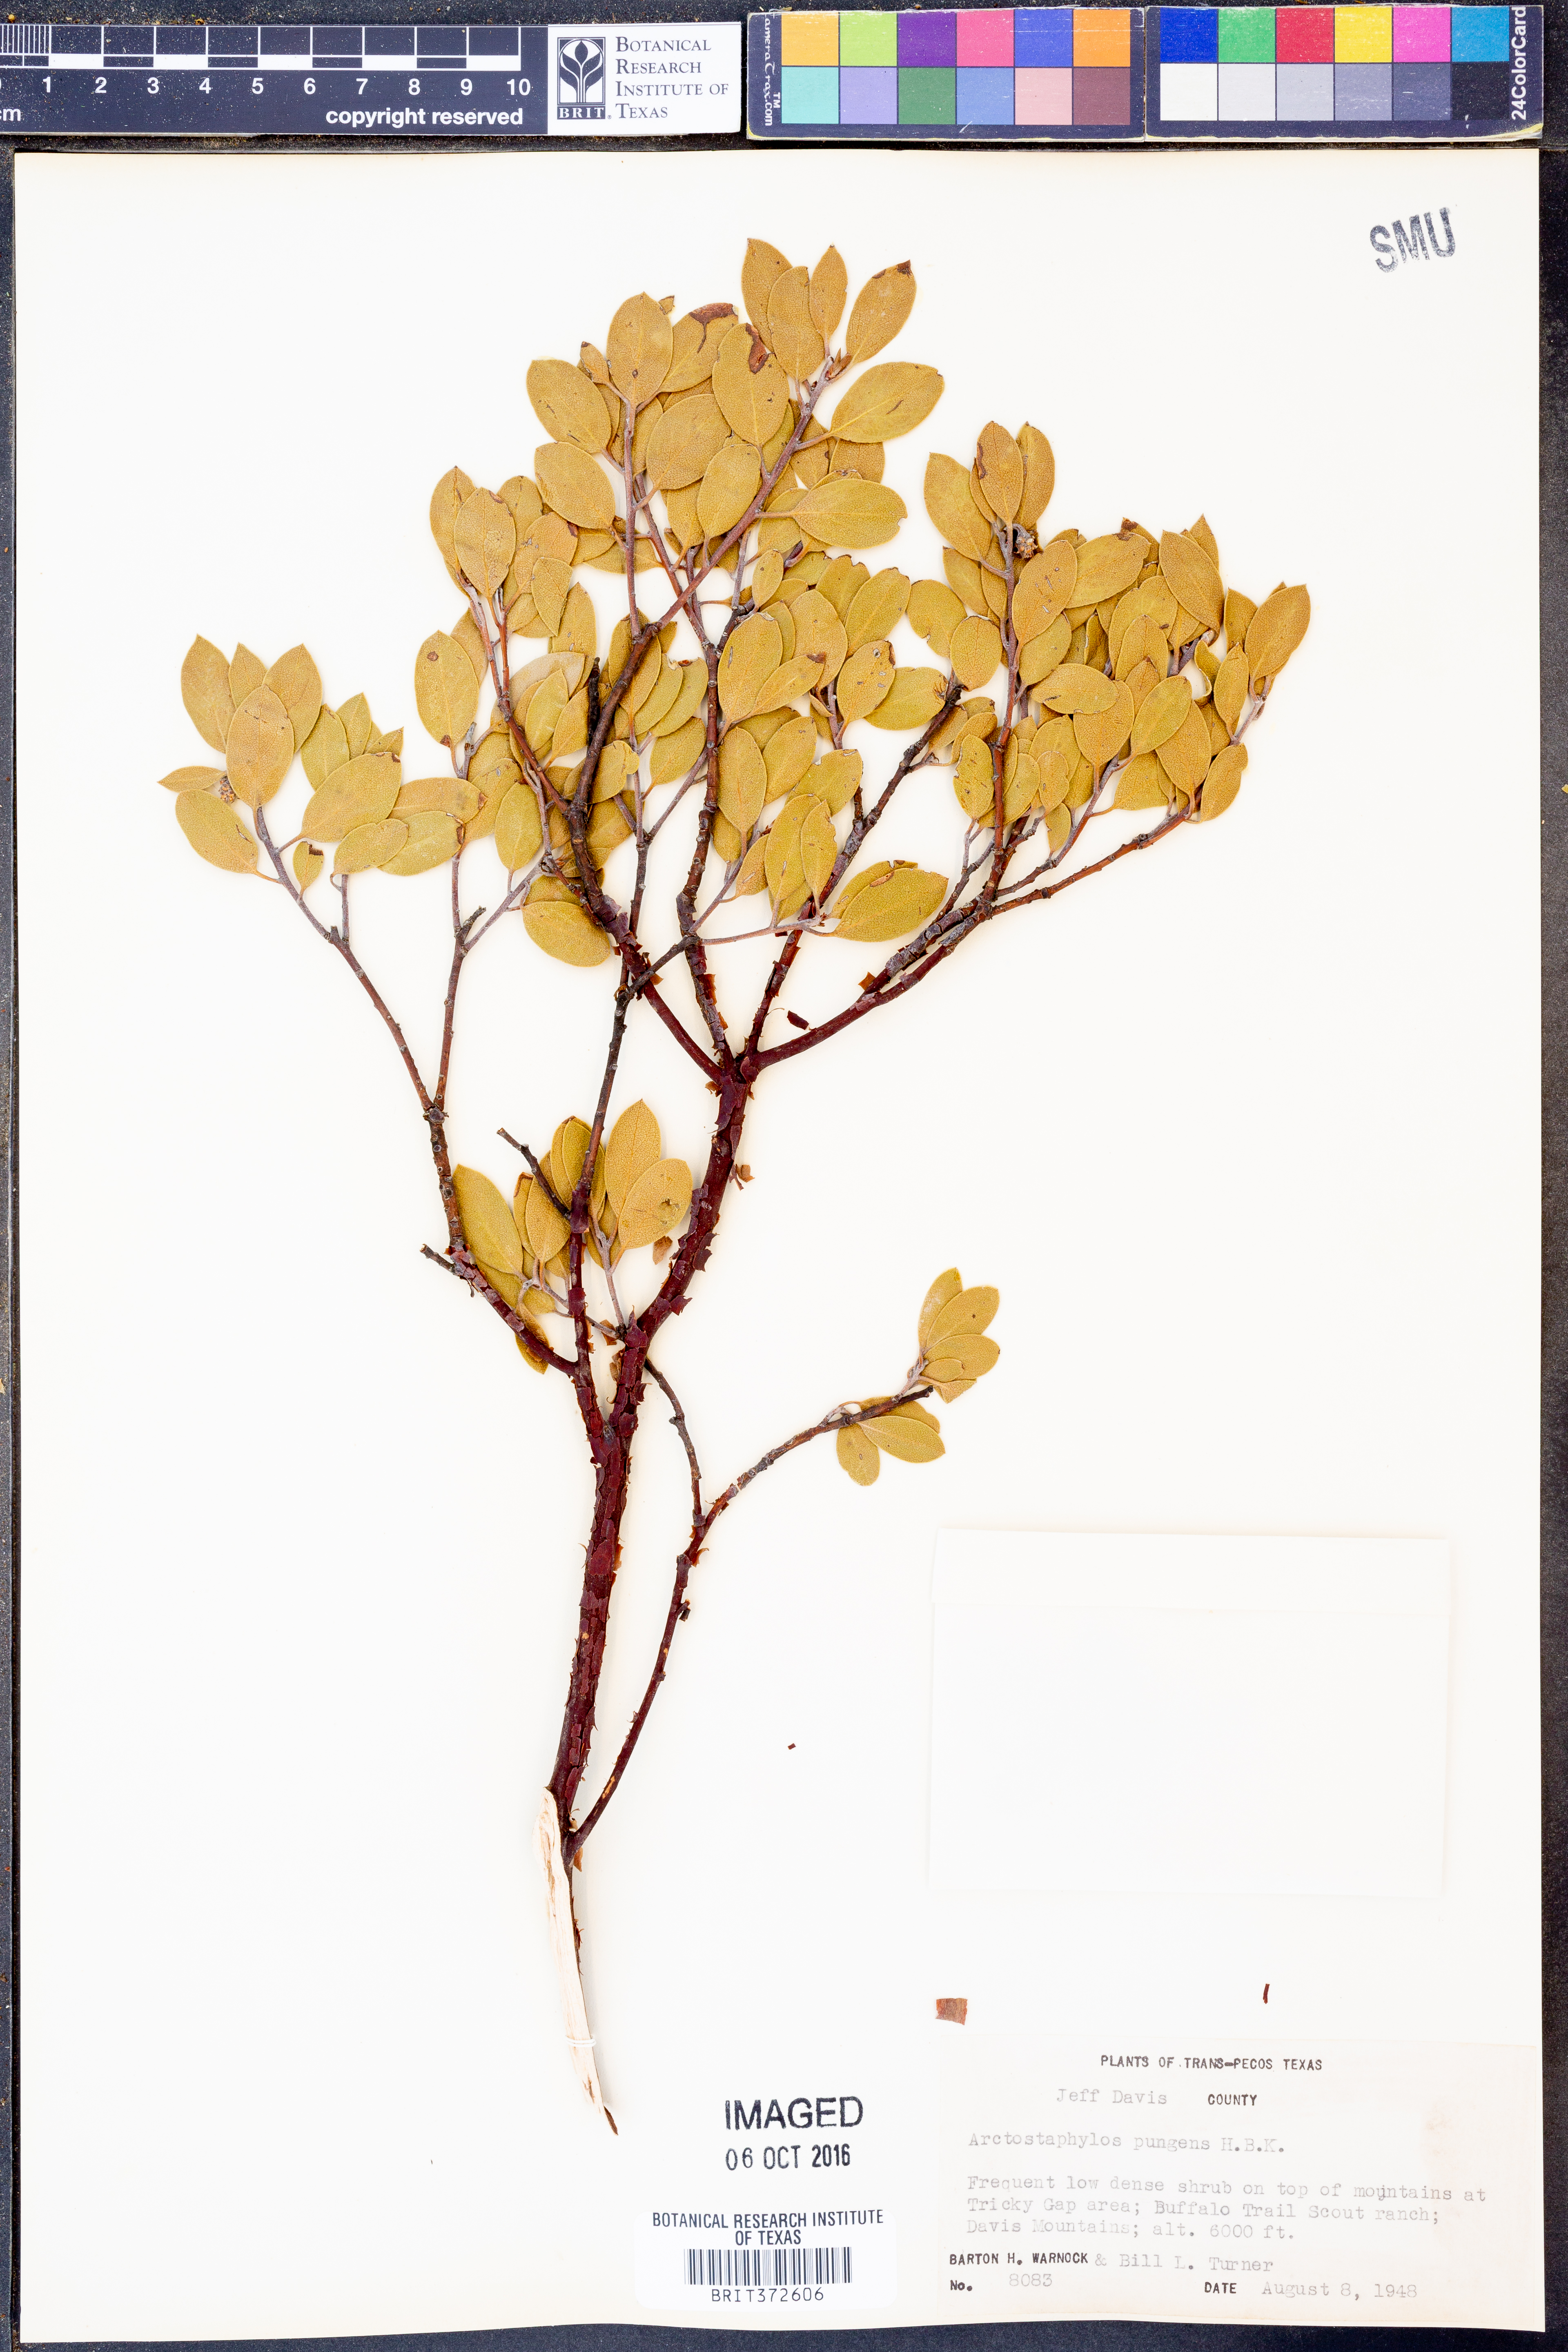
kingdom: Plantae
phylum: Tracheophyta
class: Magnoliopsida
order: Ericales
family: Ericaceae
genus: Arctostaphylos
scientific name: Arctostaphylos pungens
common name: Mexican manzanita
